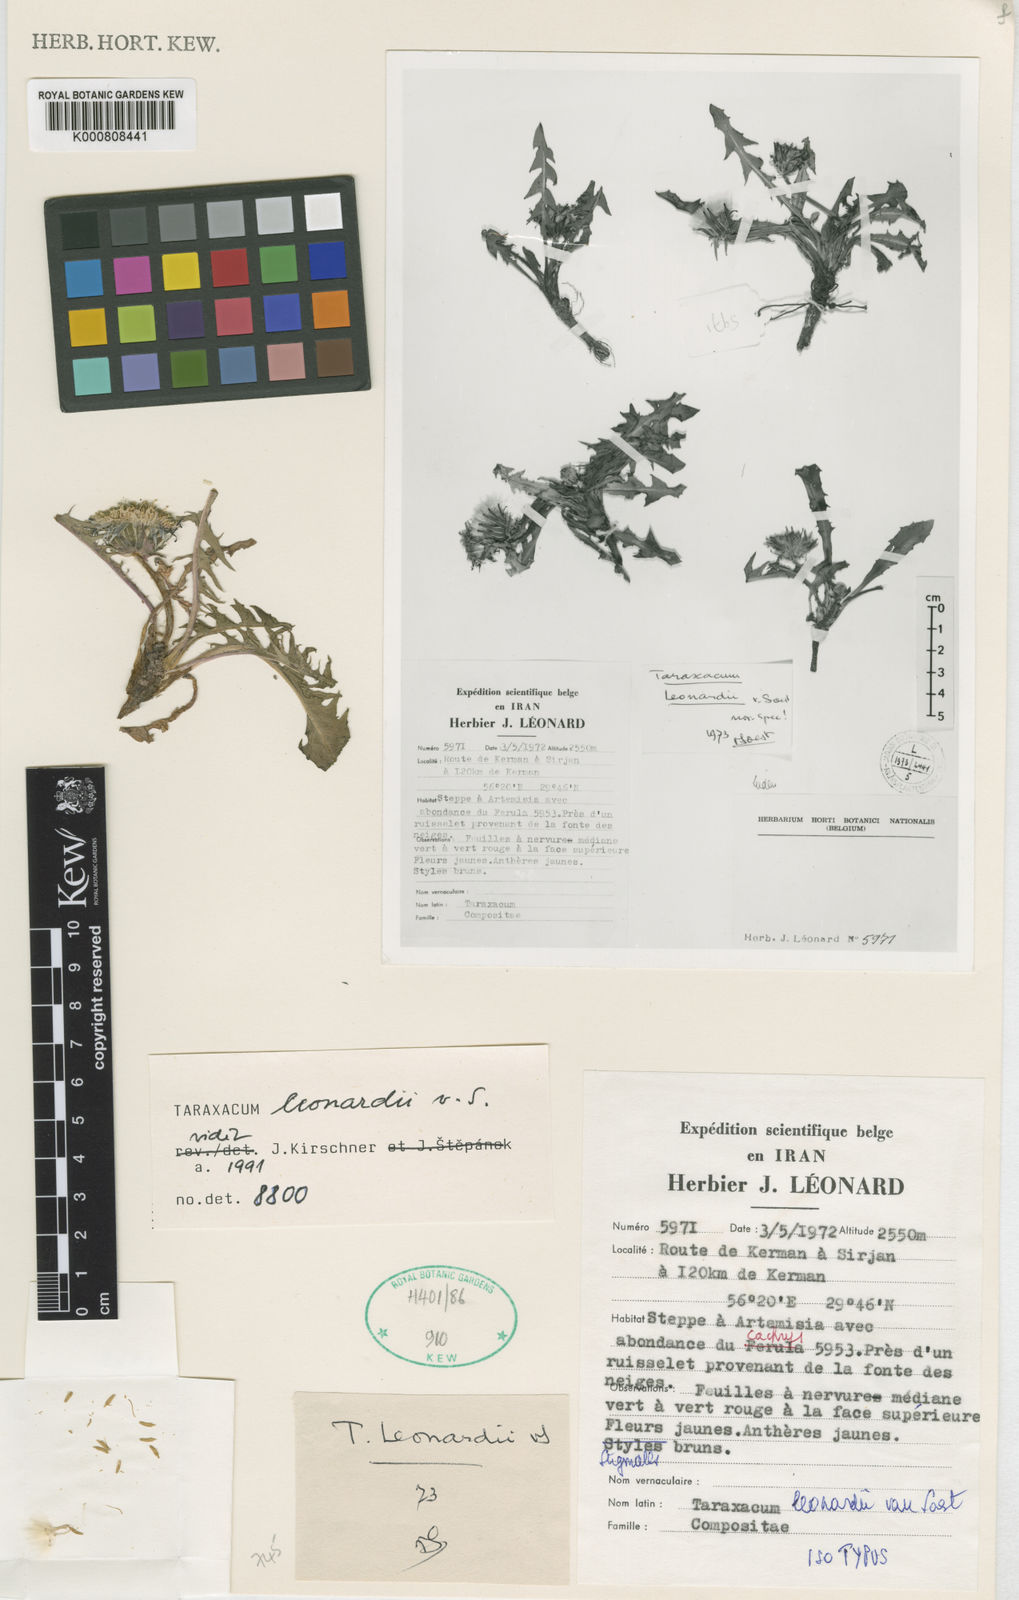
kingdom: Plantae
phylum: Tracheophyta
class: Magnoliopsida
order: Asterales
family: Asteraceae
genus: Taraxacum
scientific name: Taraxacum leonardii
